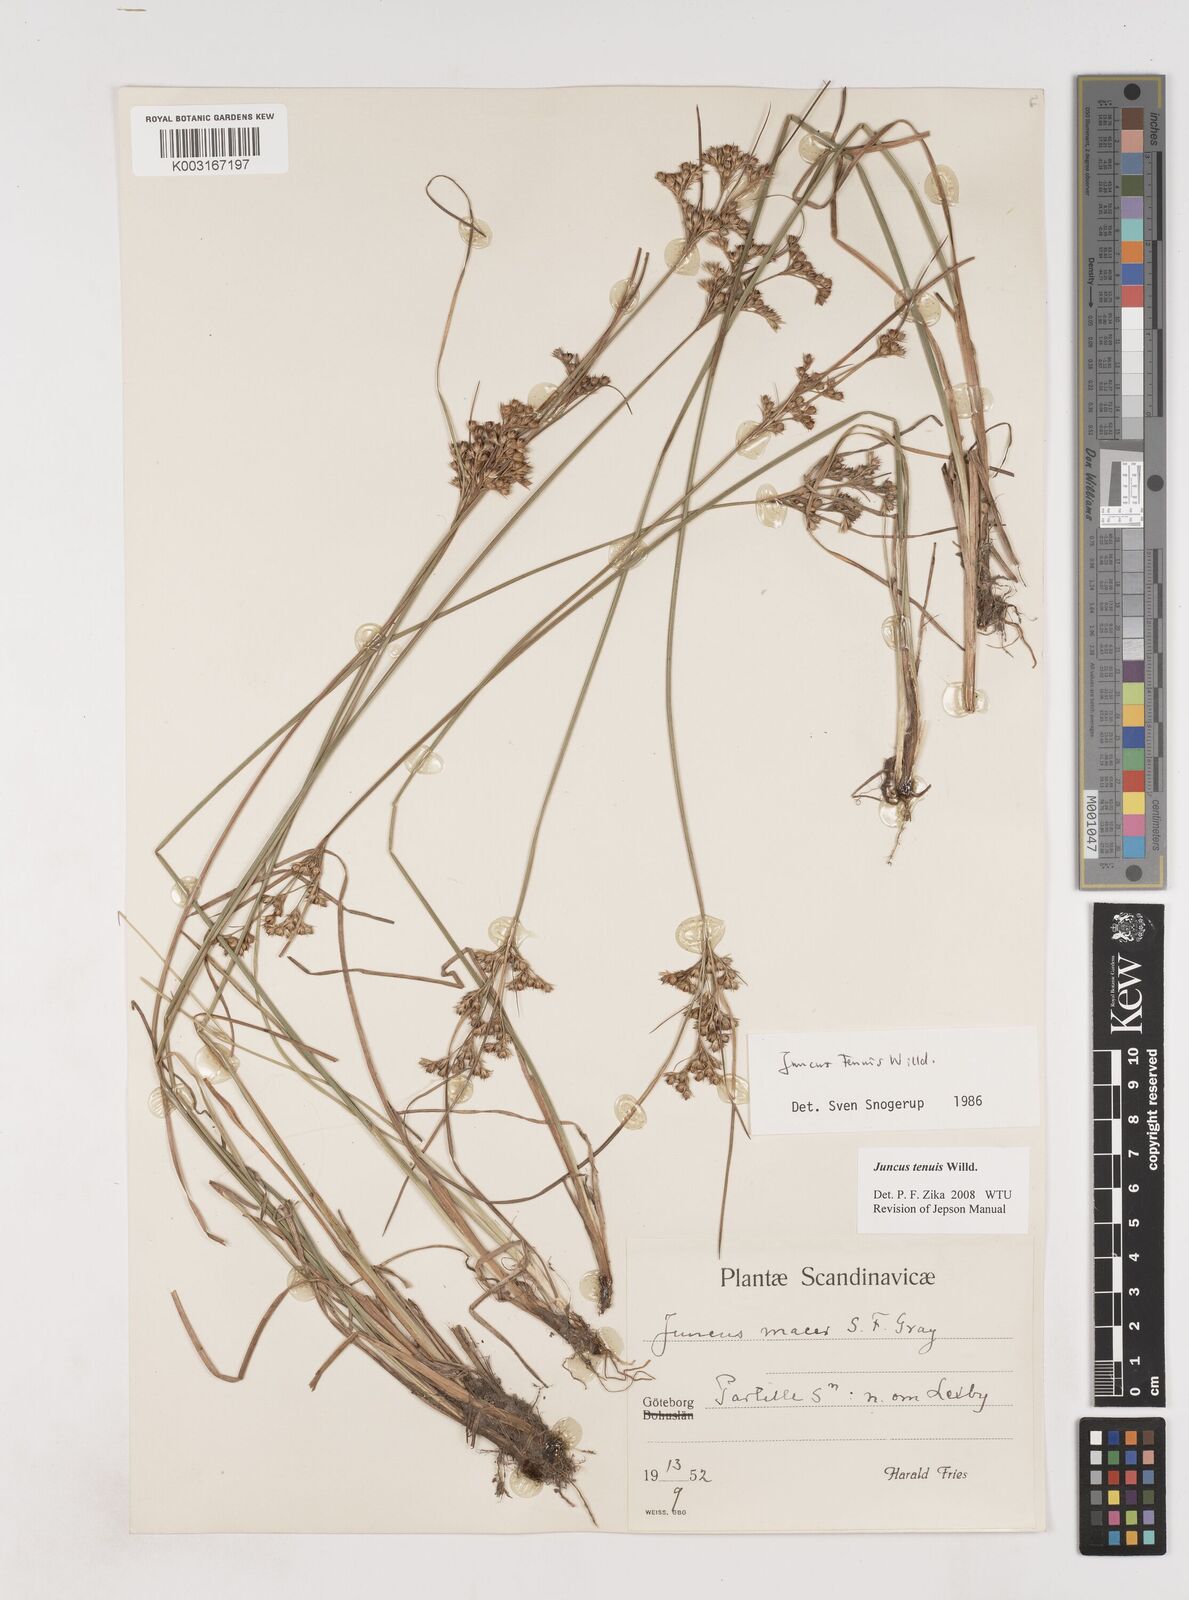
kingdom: Plantae
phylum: Tracheophyta
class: Liliopsida
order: Poales
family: Juncaceae
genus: Juncus
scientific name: Juncus tenuis
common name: Slender rush
